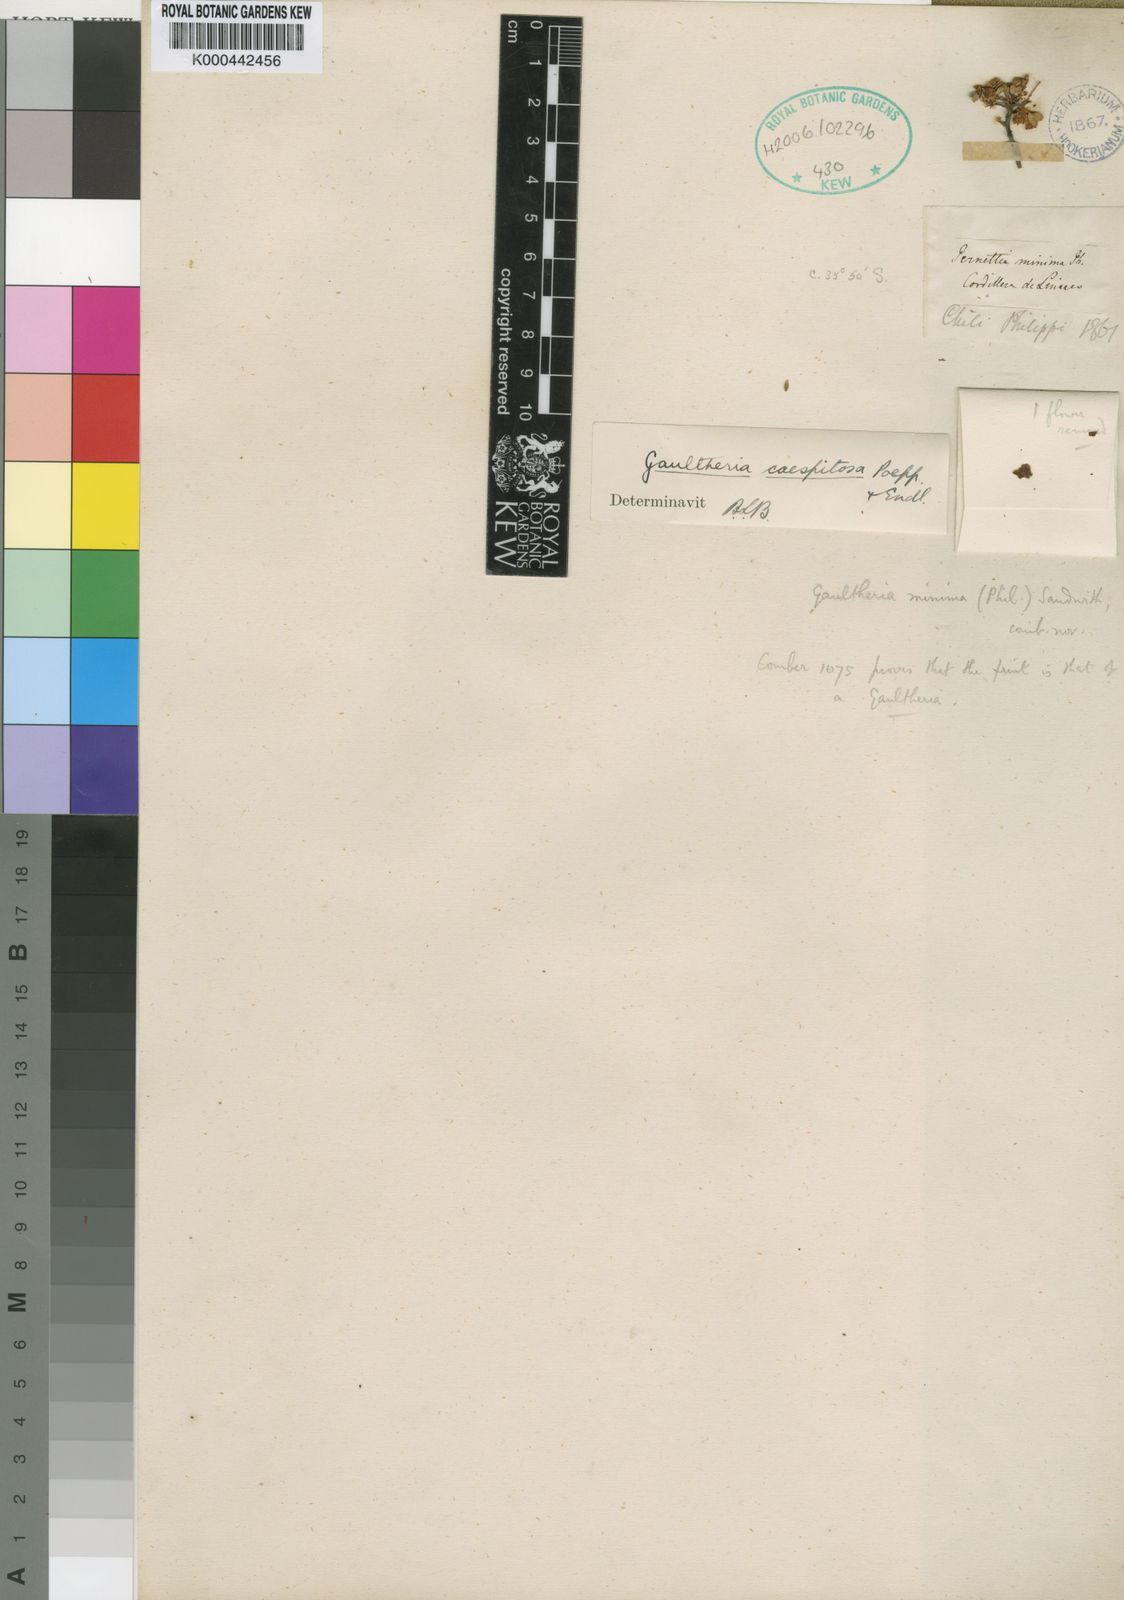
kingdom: Plantae
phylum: Tracheophyta
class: Magnoliopsida
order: Ericales
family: Ericaceae
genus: Gaultheria
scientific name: Gaultheria caespitosa
